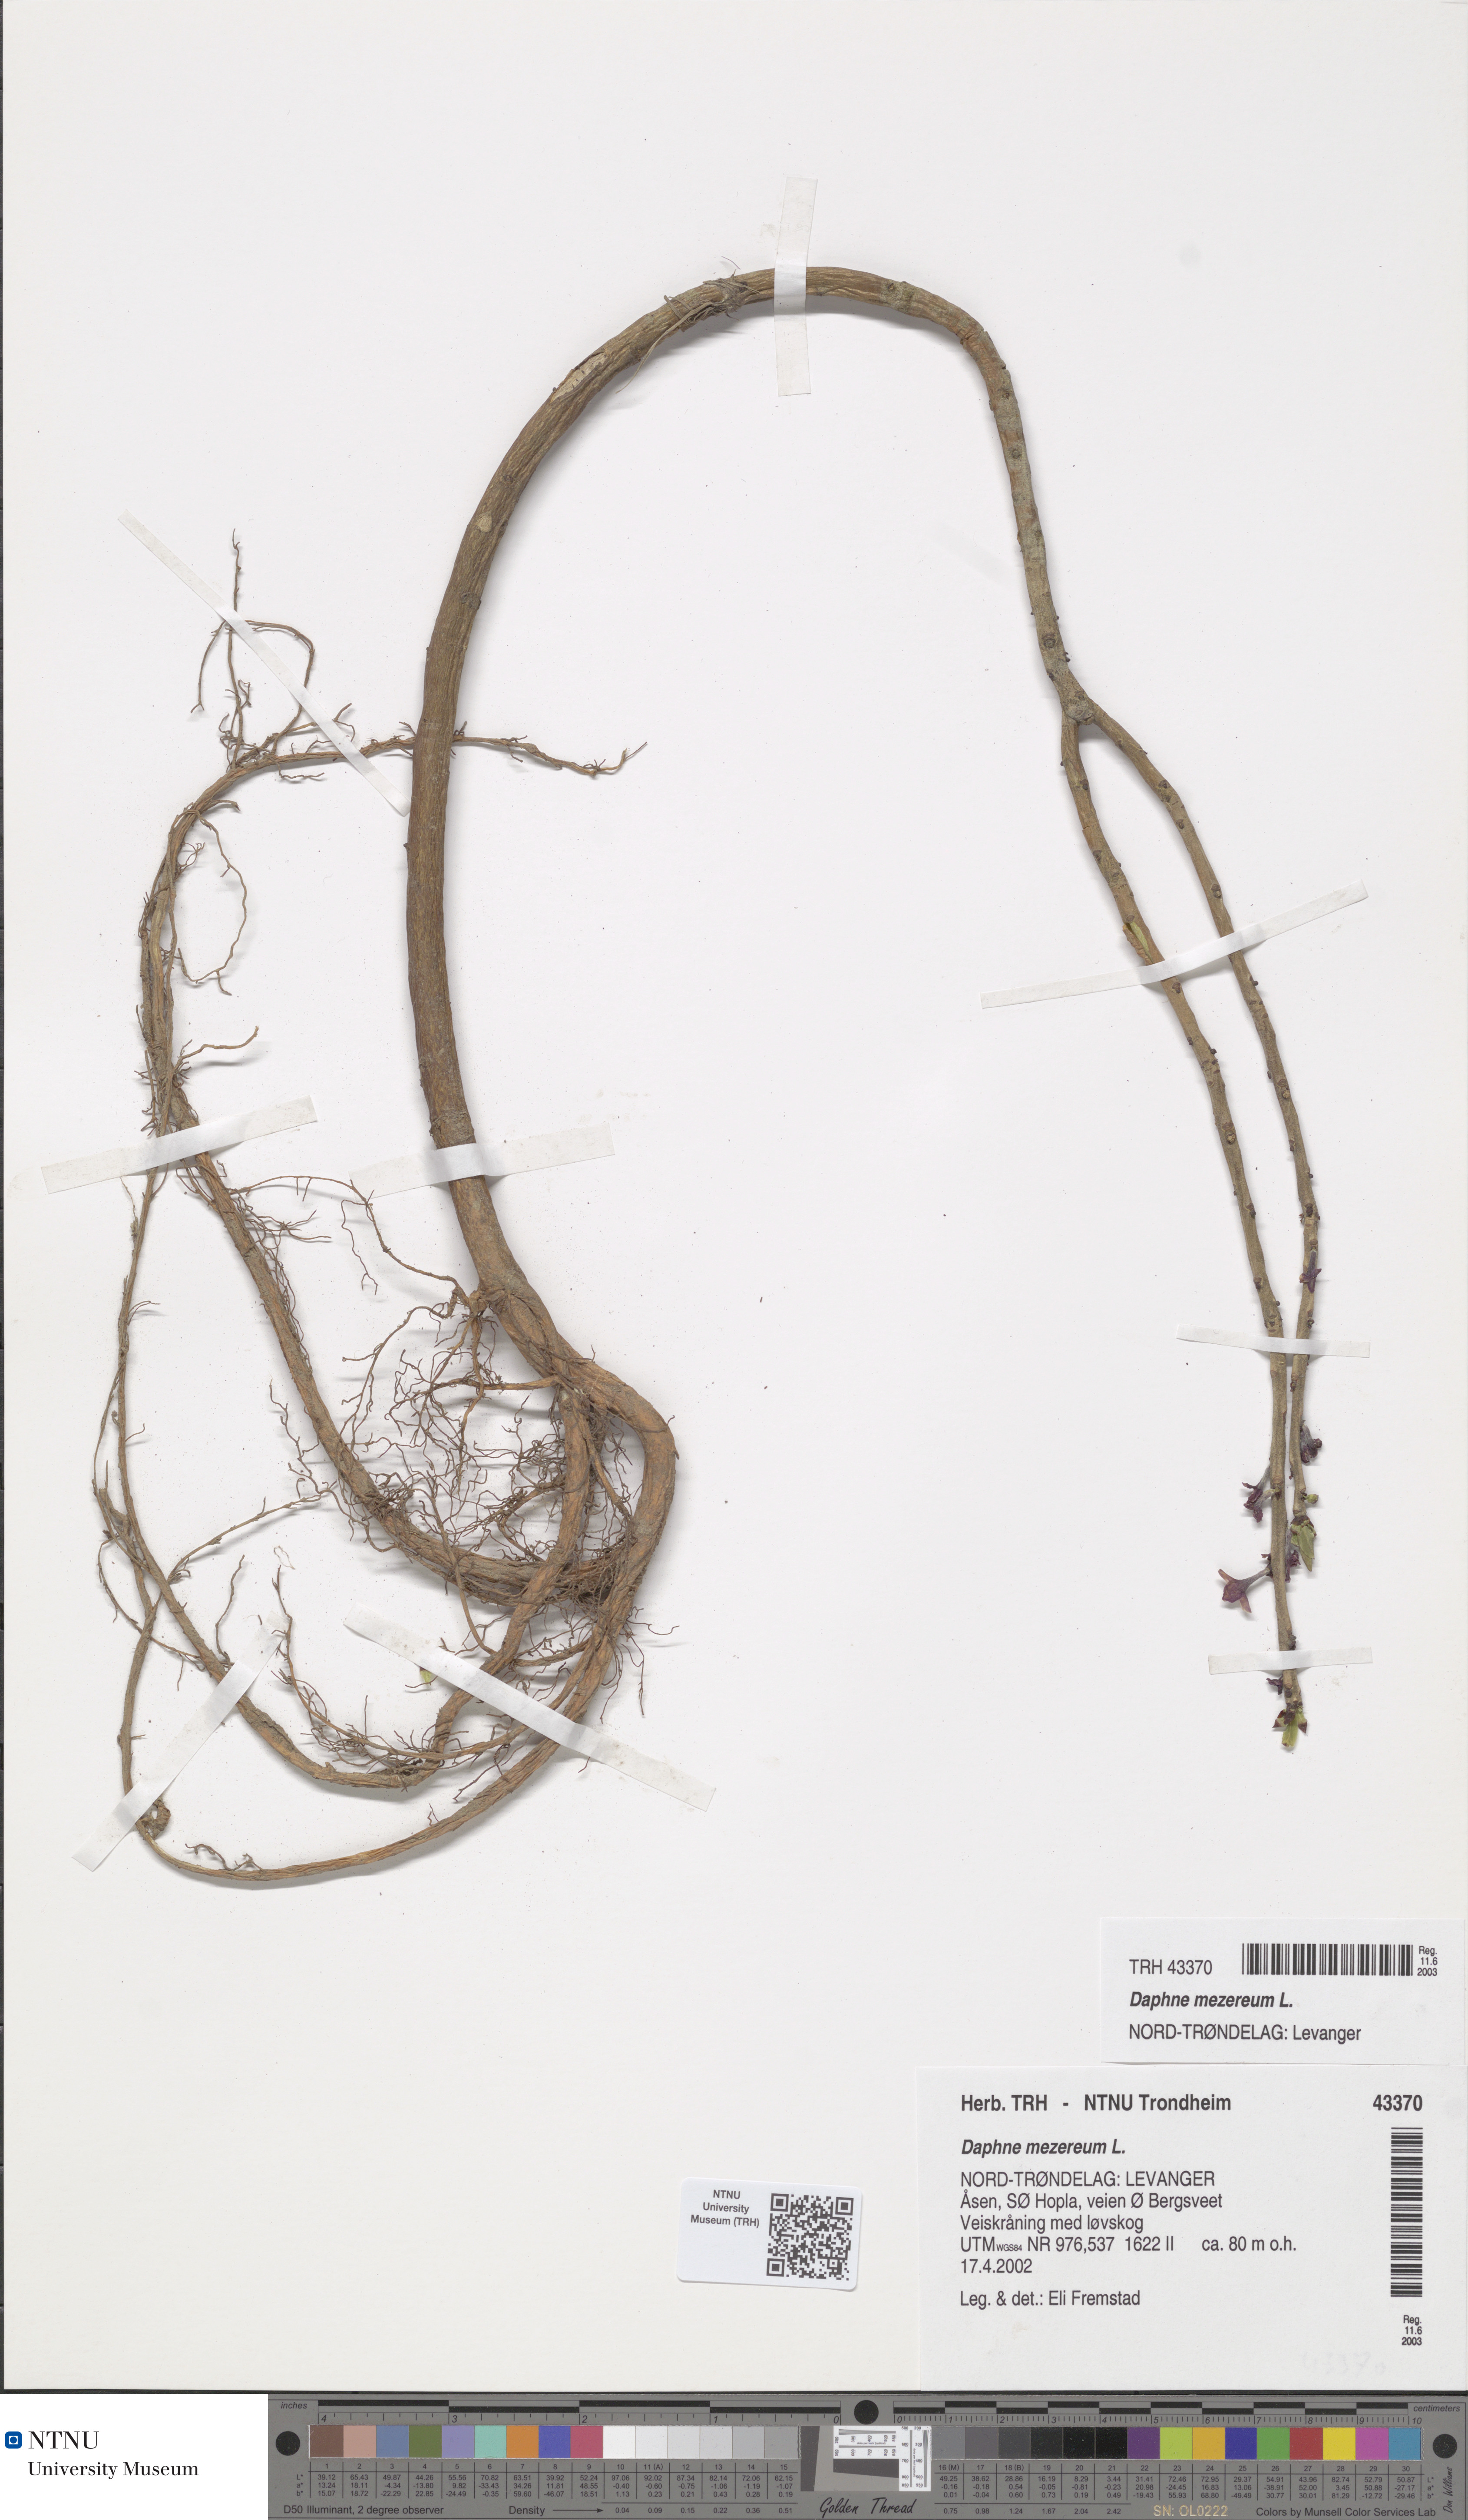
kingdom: Plantae
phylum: Tracheophyta
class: Magnoliopsida
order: Malvales
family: Thymelaeaceae
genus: Daphne
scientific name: Daphne mezereum
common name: Mezereon
